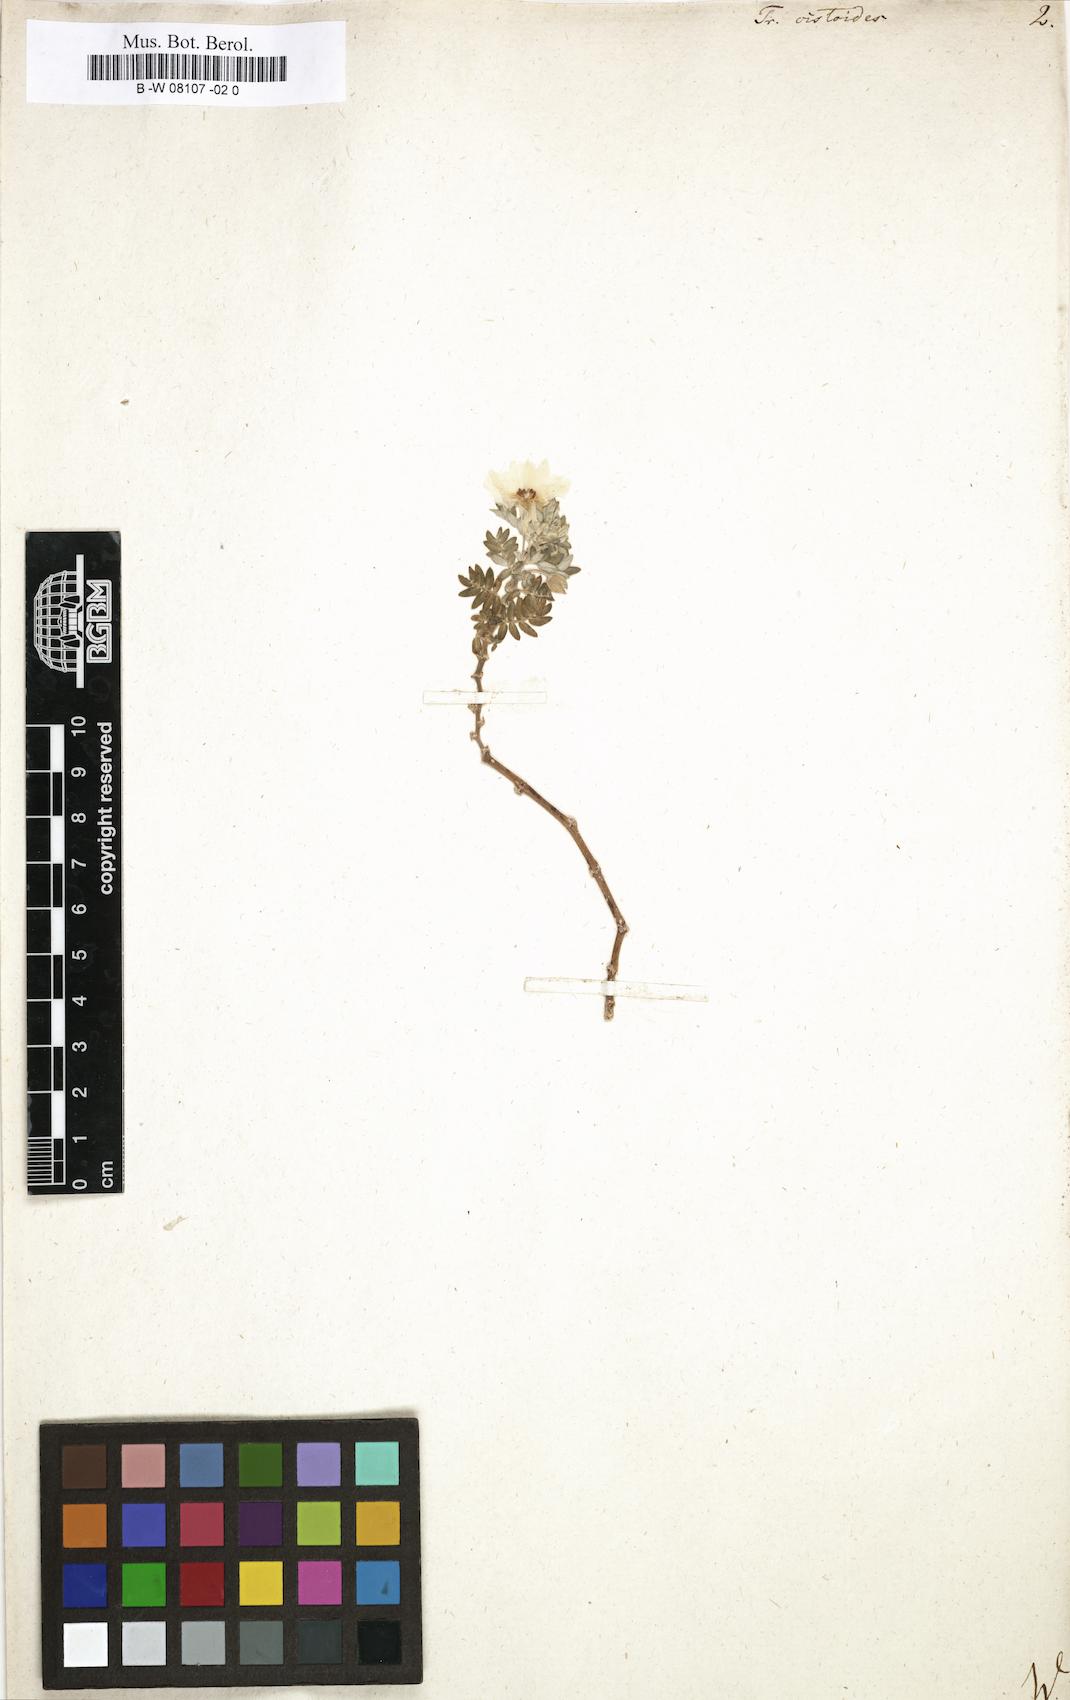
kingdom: Plantae
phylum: Tracheophyta
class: Magnoliopsida
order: Zygophyllales
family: Zygophyllaceae
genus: Tribulus
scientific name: Tribulus cistoides
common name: Jamaican feverplant
